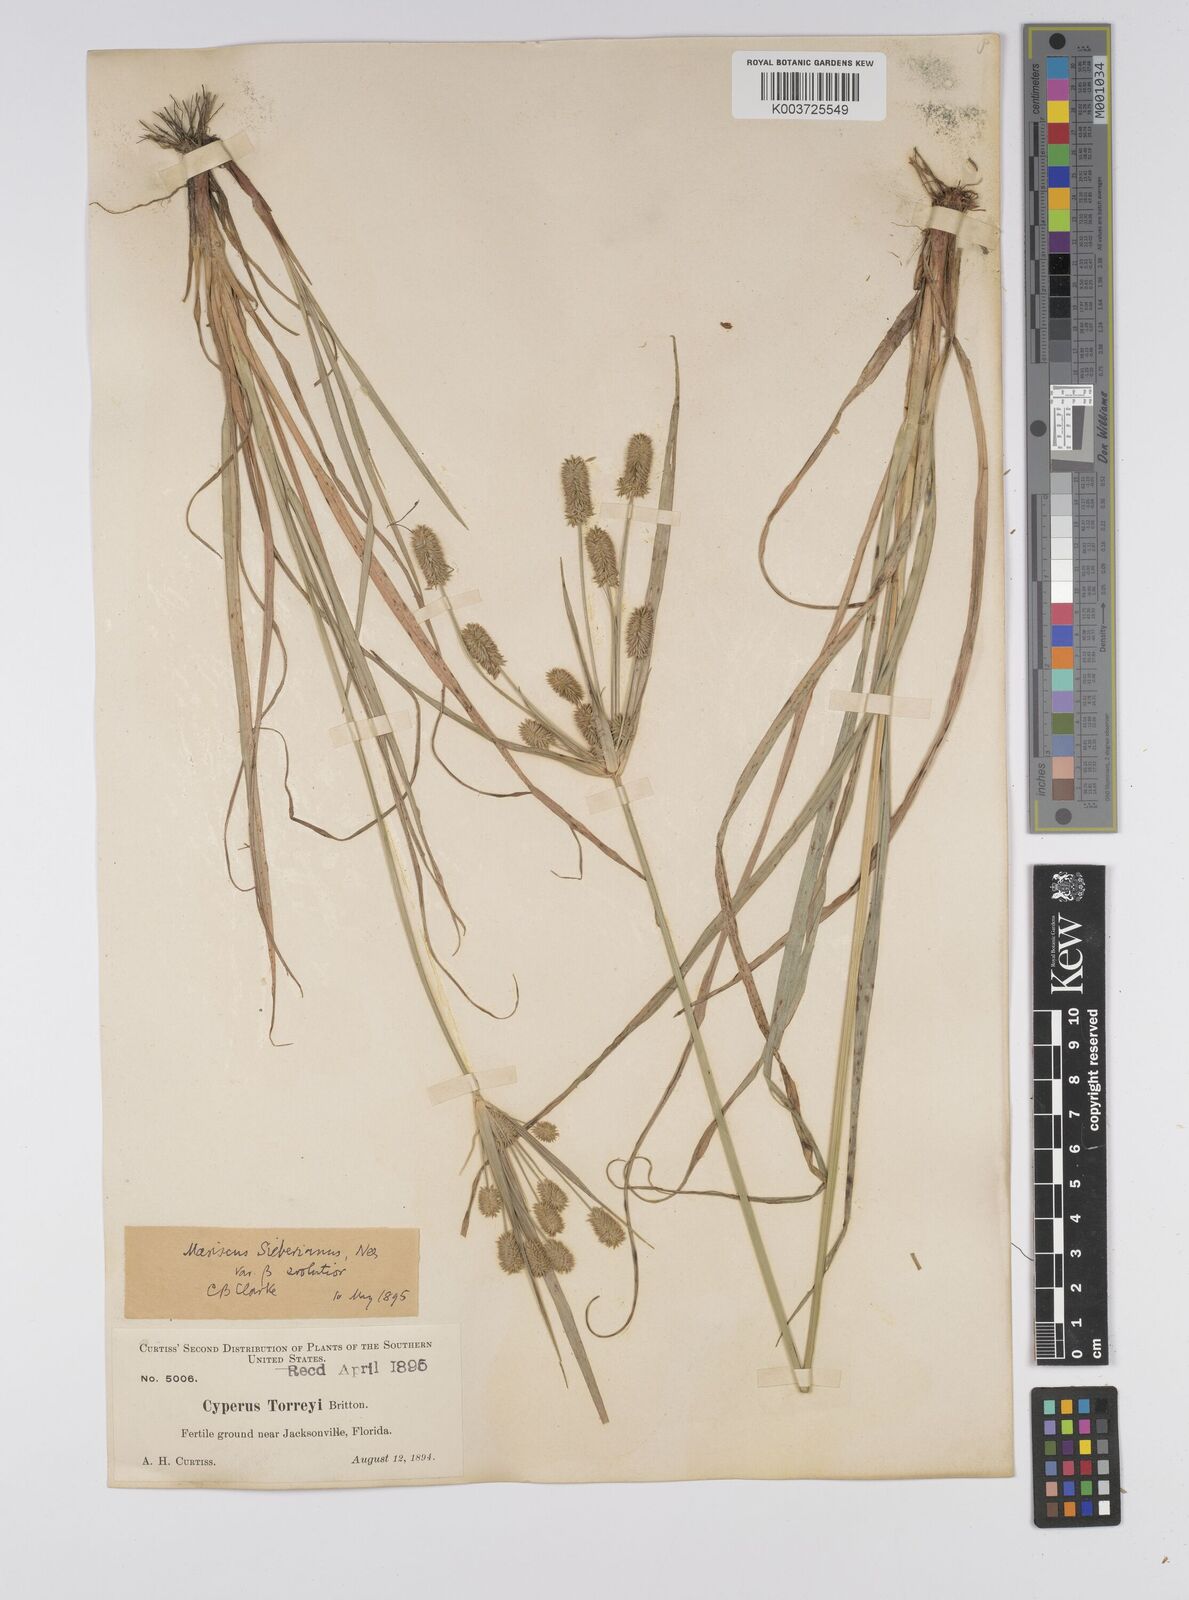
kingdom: Plantae
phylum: Tracheophyta
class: Liliopsida
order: Poales
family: Cyperaceae
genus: Cyperus
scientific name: Cyperus cyperoides
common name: Pacific island flat sedge
